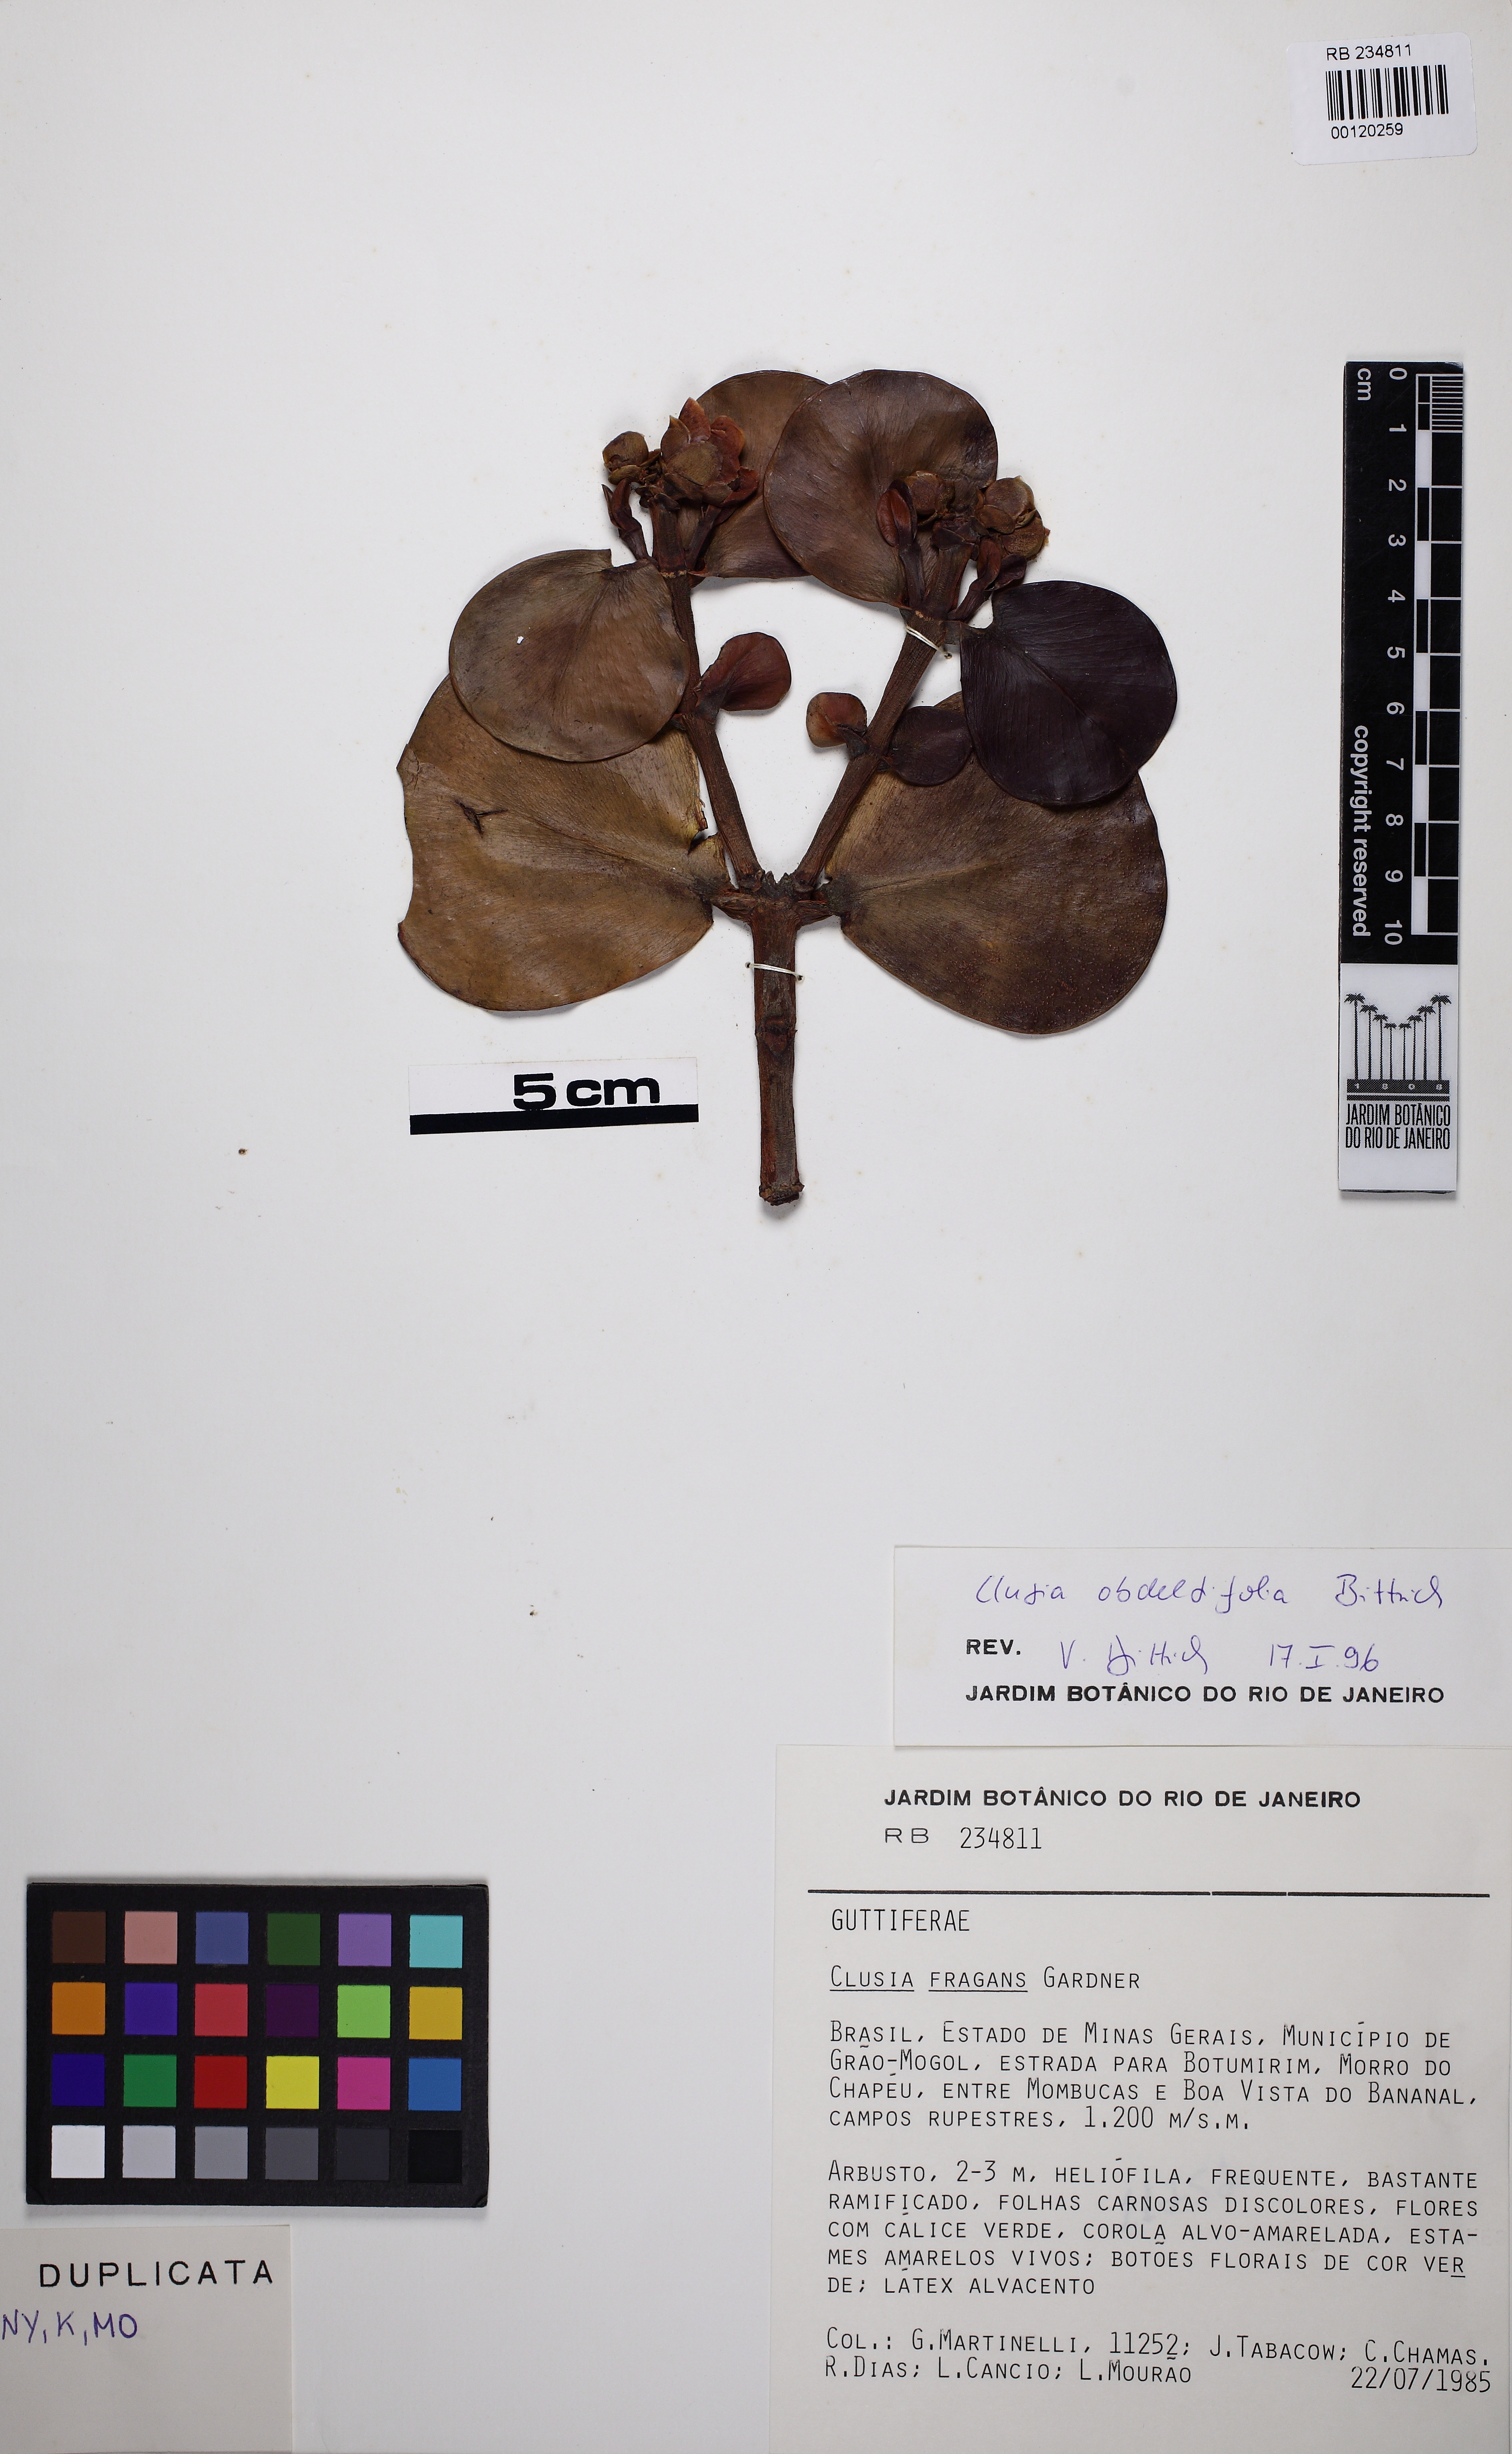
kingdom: Plantae
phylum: Tracheophyta
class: Magnoliopsida
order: Malpighiales
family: Clusiaceae
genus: Clusia
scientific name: Clusia obdeltifolia
